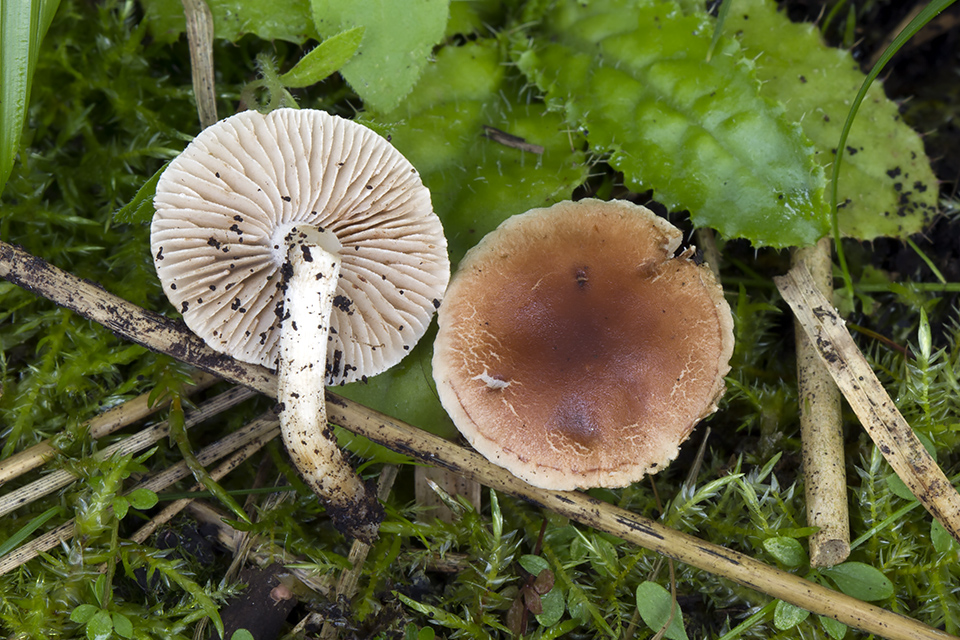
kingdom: Fungi
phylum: Basidiomycota
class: Agaricomycetes
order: Agaricales
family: Hymenogastraceae
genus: Hebeloma
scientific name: Hebeloma pusillum
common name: mose-tåreblad
